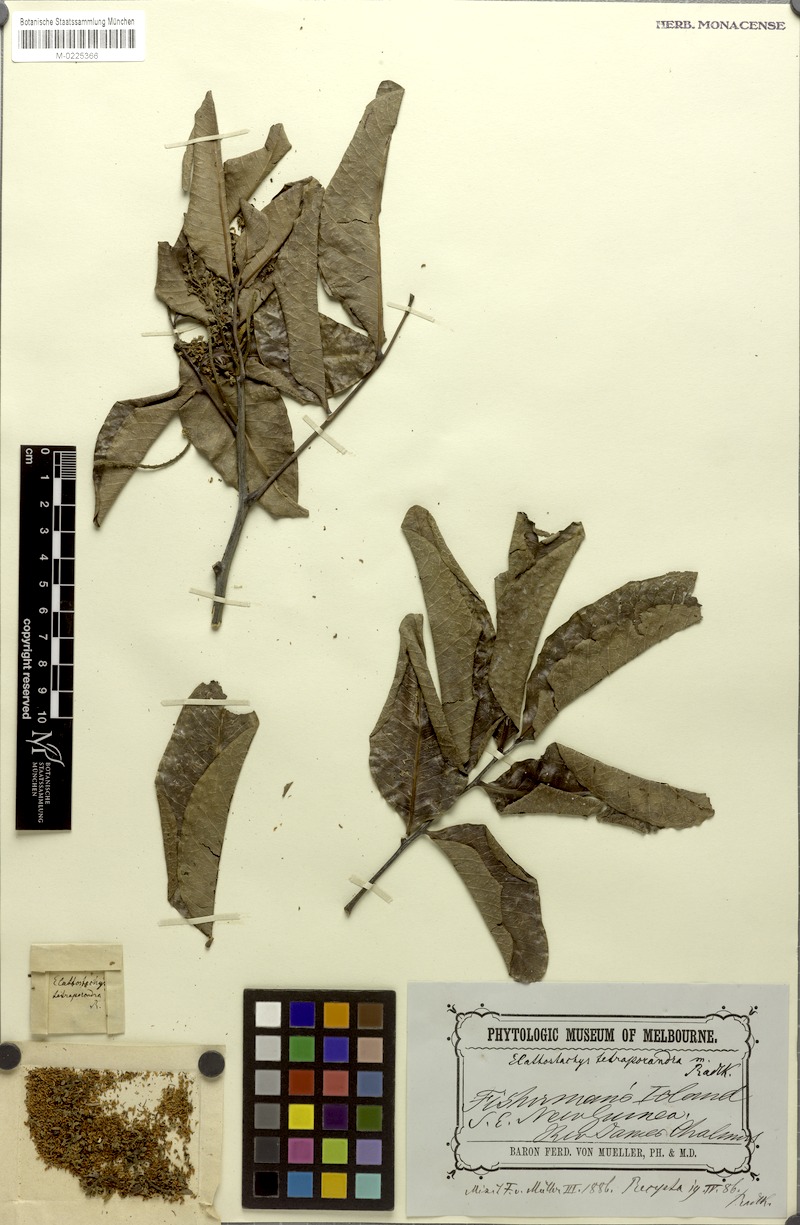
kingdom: Plantae
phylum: Tracheophyta
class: Magnoliopsida
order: Sapindales
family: Sapindaceae
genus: Elattostachys
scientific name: Elattostachys tetraporandrus
